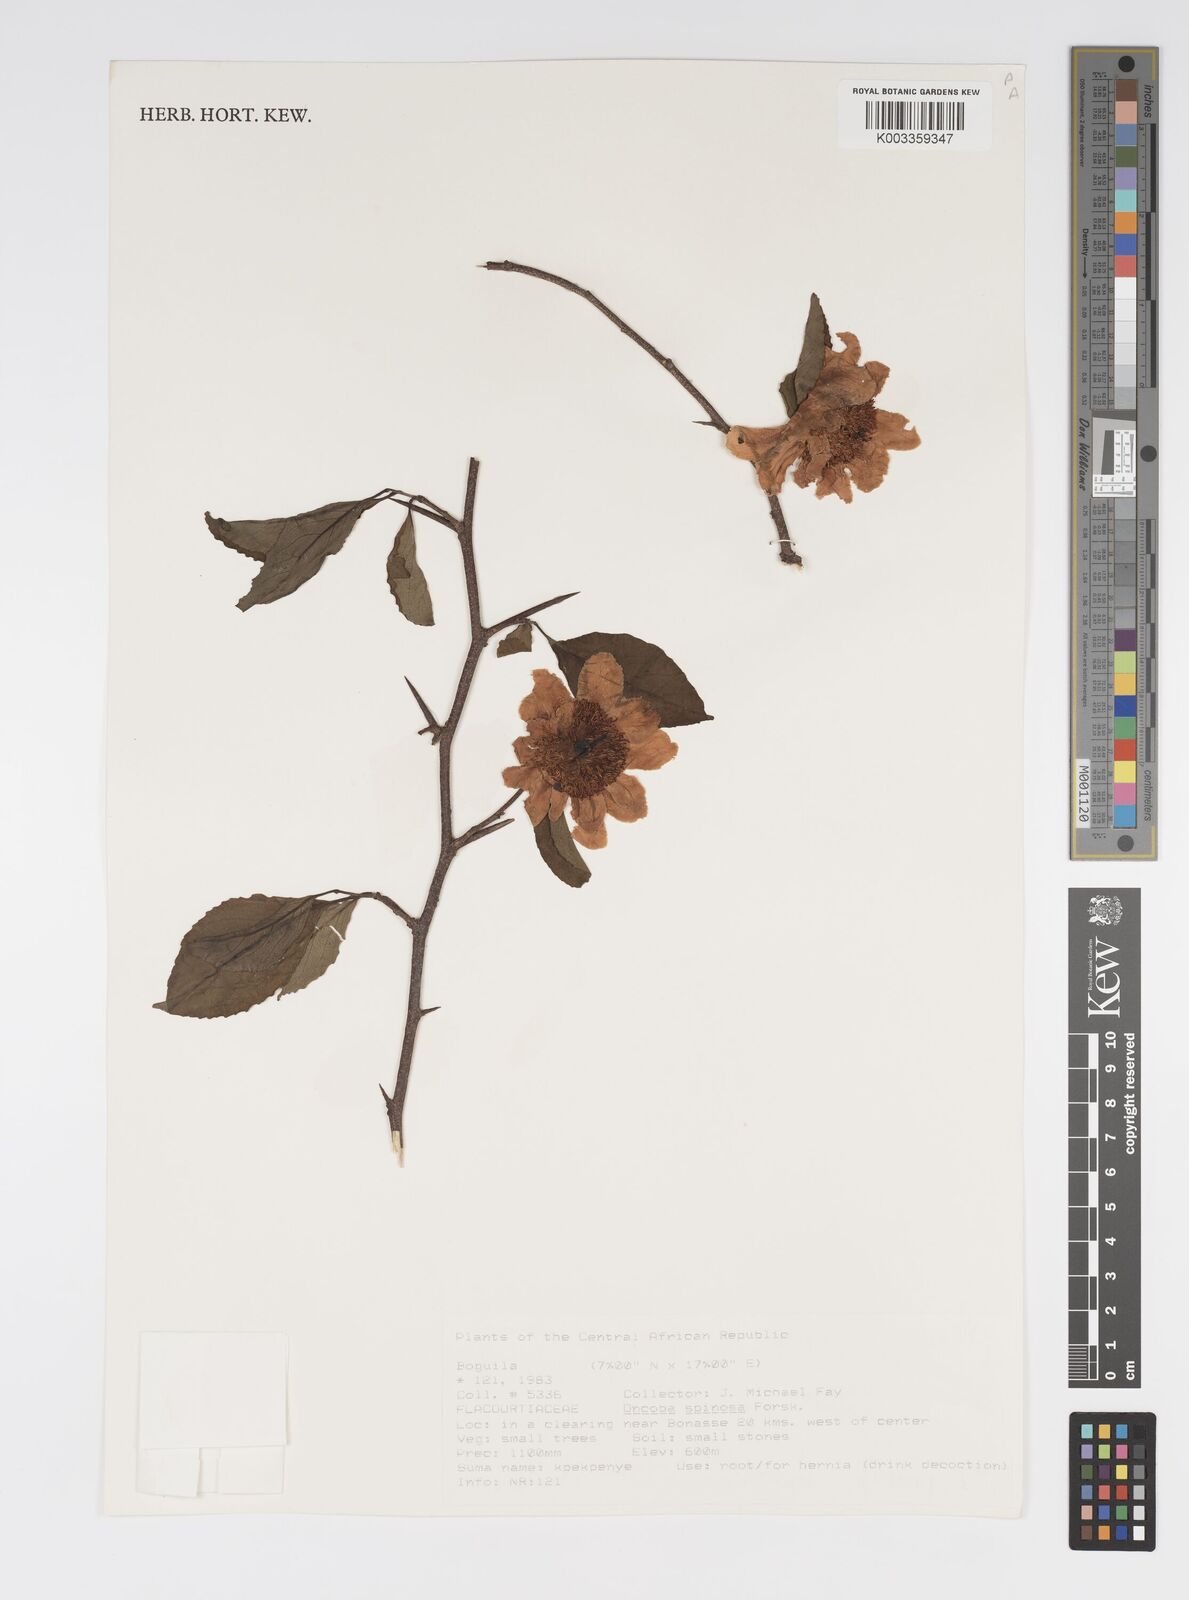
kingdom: Plantae
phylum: Tracheophyta
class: Magnoliopsida
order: Malpighiales
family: Salicaceae
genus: Oncoba
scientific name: Oncoba spinosa
